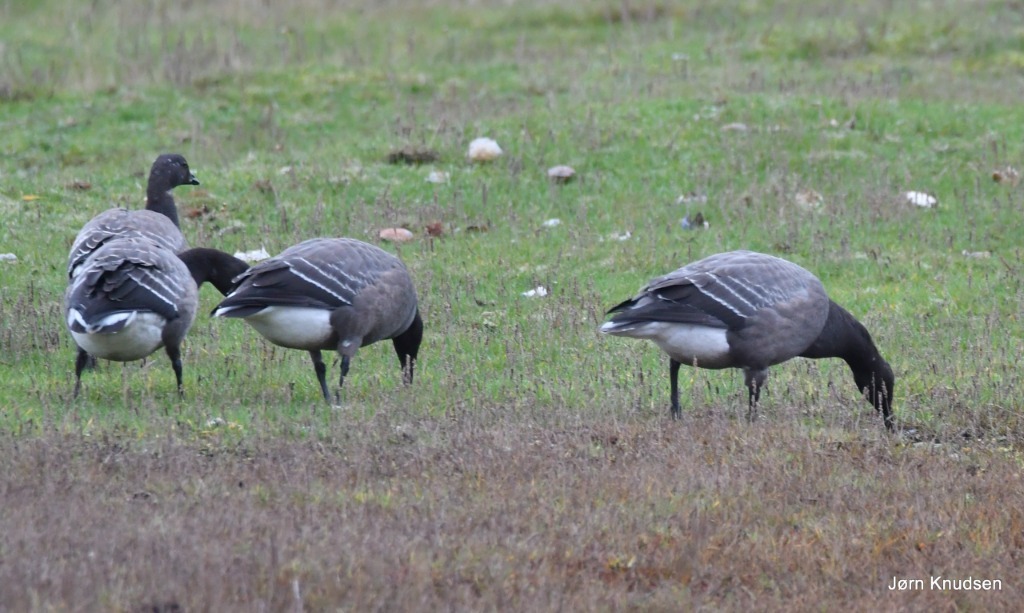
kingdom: Animalia
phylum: Chordata
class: Aves
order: Anseriformes
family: Anatidae
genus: Branta
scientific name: Branta bernicla
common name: Knortegås
